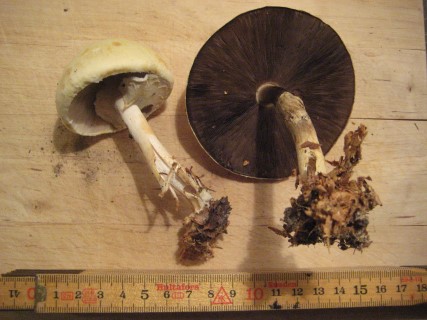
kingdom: Fungi
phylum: Basidiomycota
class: Agaricomycetes
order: Agaricales
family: Agaricaceae
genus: Agaricus
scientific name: Agaricus sylvicola
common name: skiveknoldet champignon
